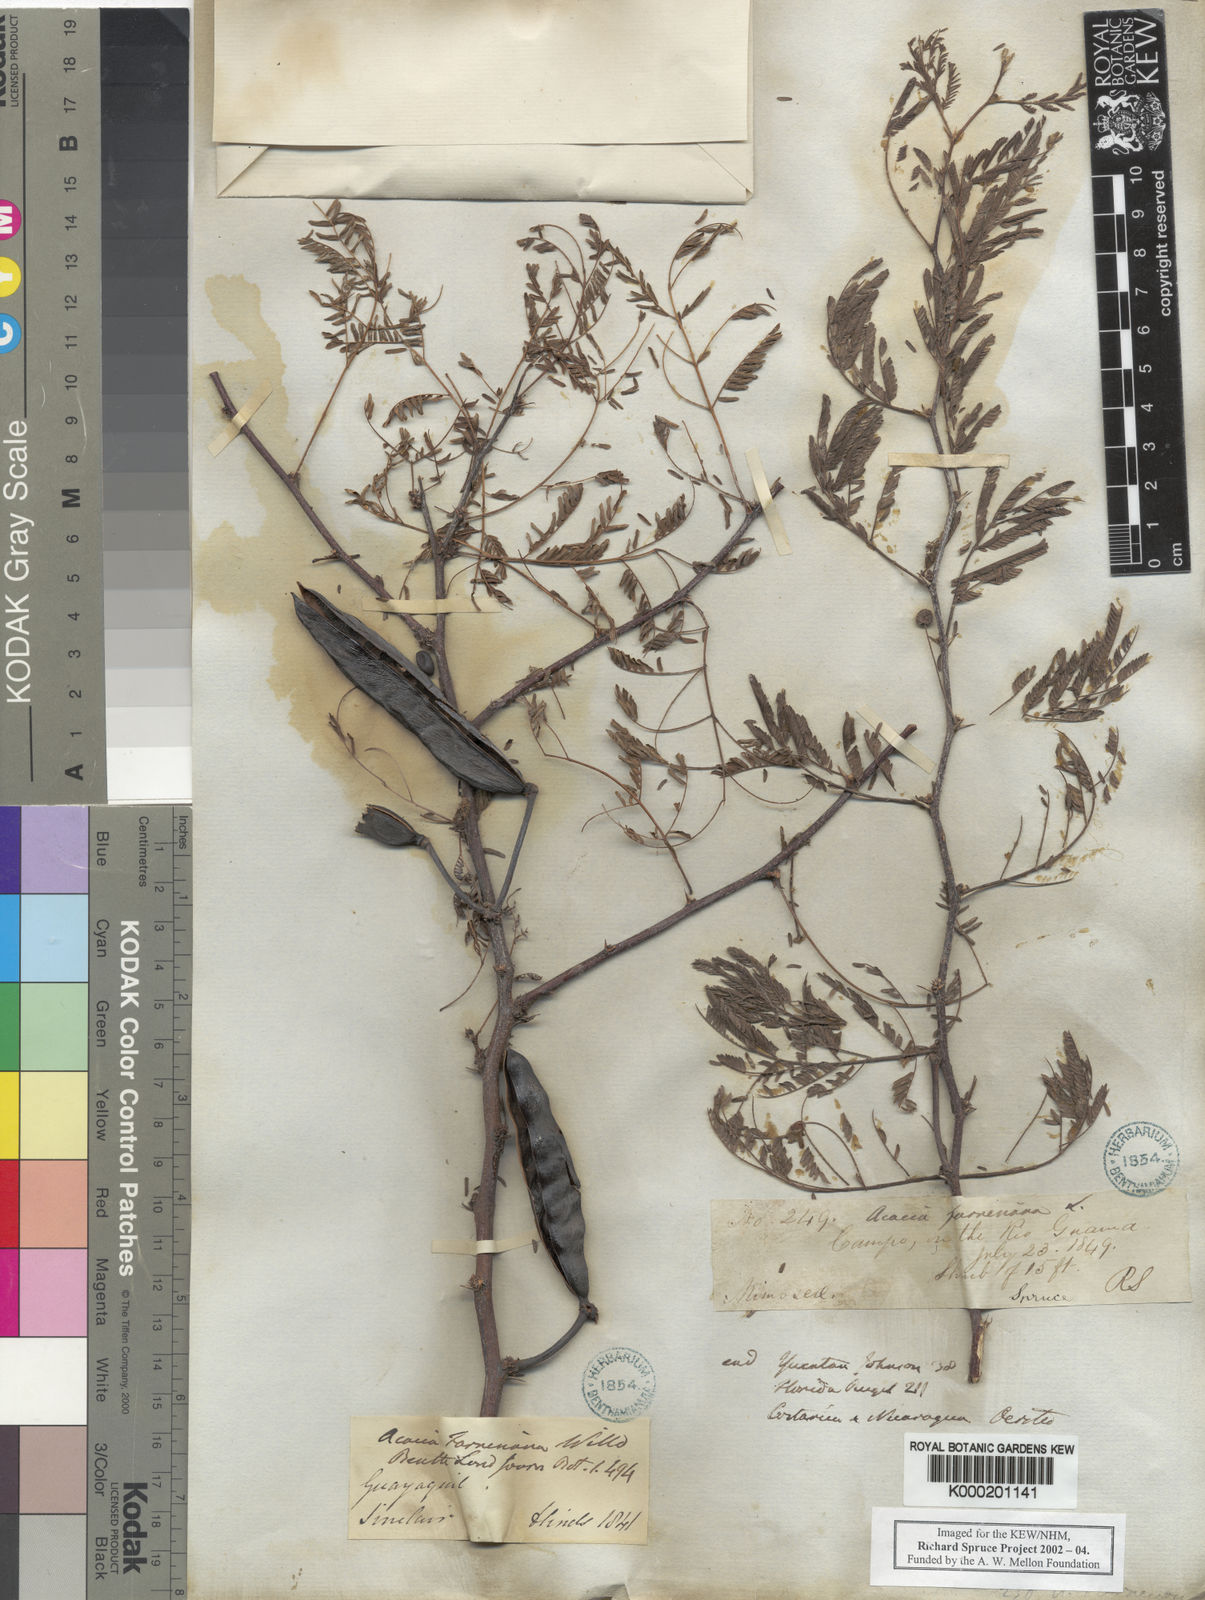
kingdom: Plantae
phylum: Tracheophyta
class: Magnoliopsida
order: Fabales
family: Fabaceae
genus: Vachellia
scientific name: Vachellia farnesiana
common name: Sweet acacia
